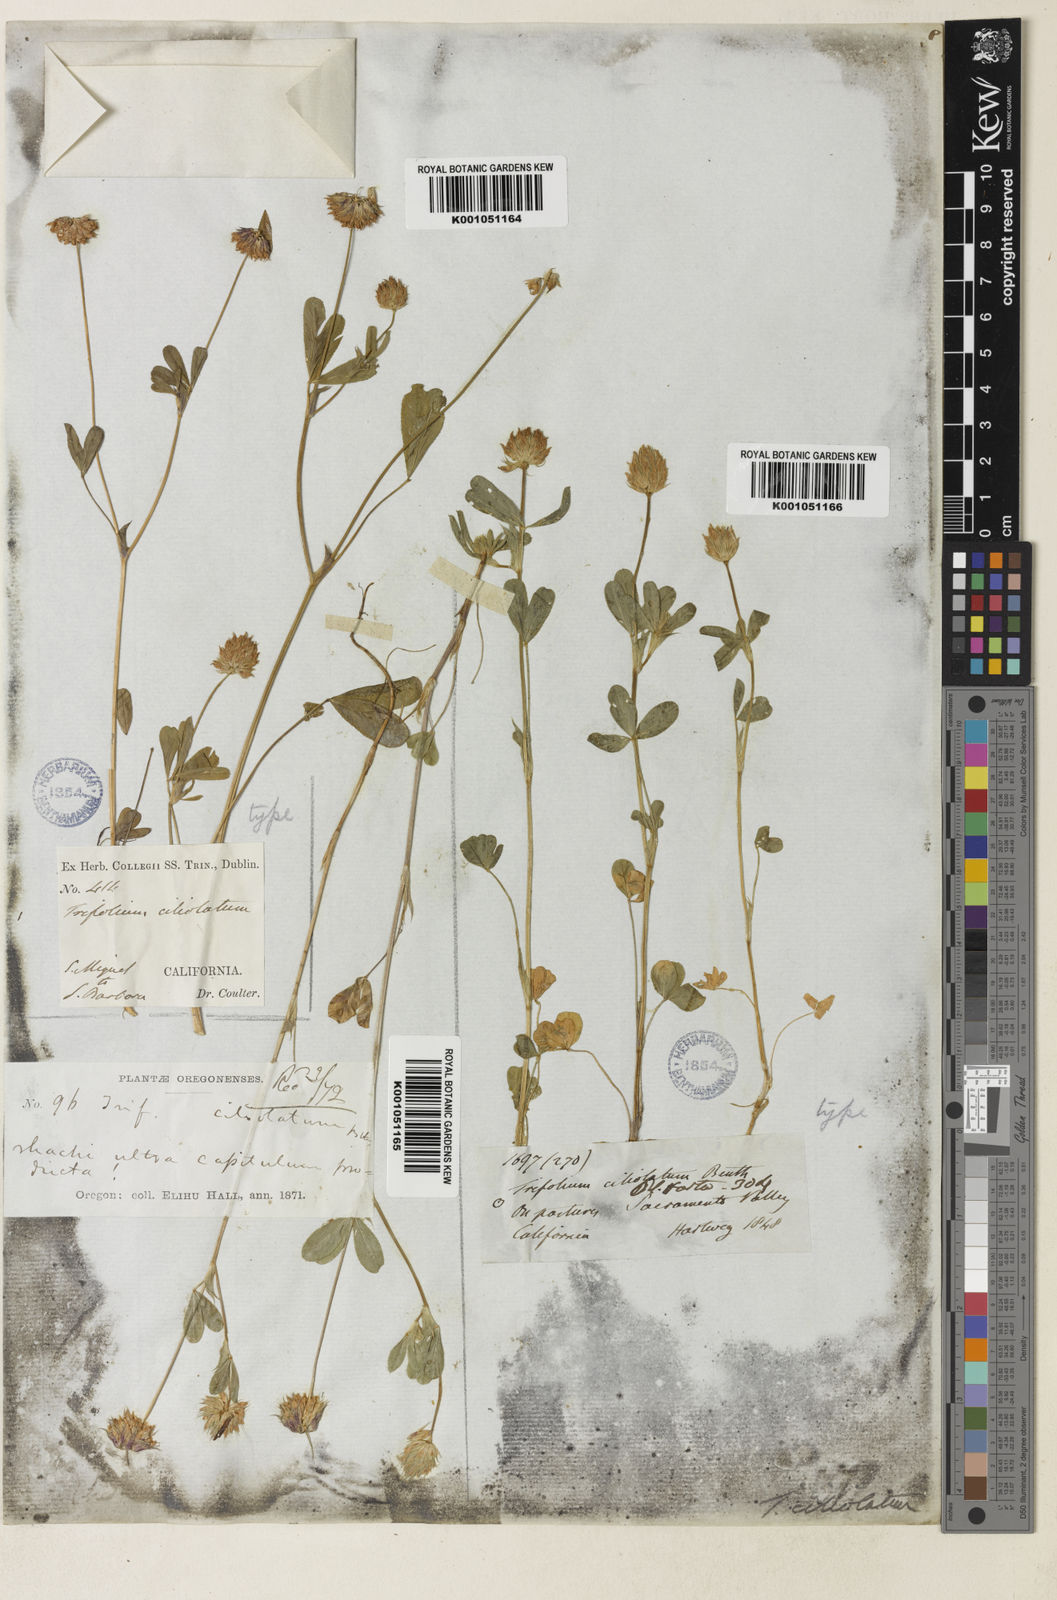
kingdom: Plantae
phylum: Tracheophyta
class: Magnoliopsida
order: Fabales
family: Fabaceae
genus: Trifolium
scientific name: Trifolium ciliolatum
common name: Foothill clover
